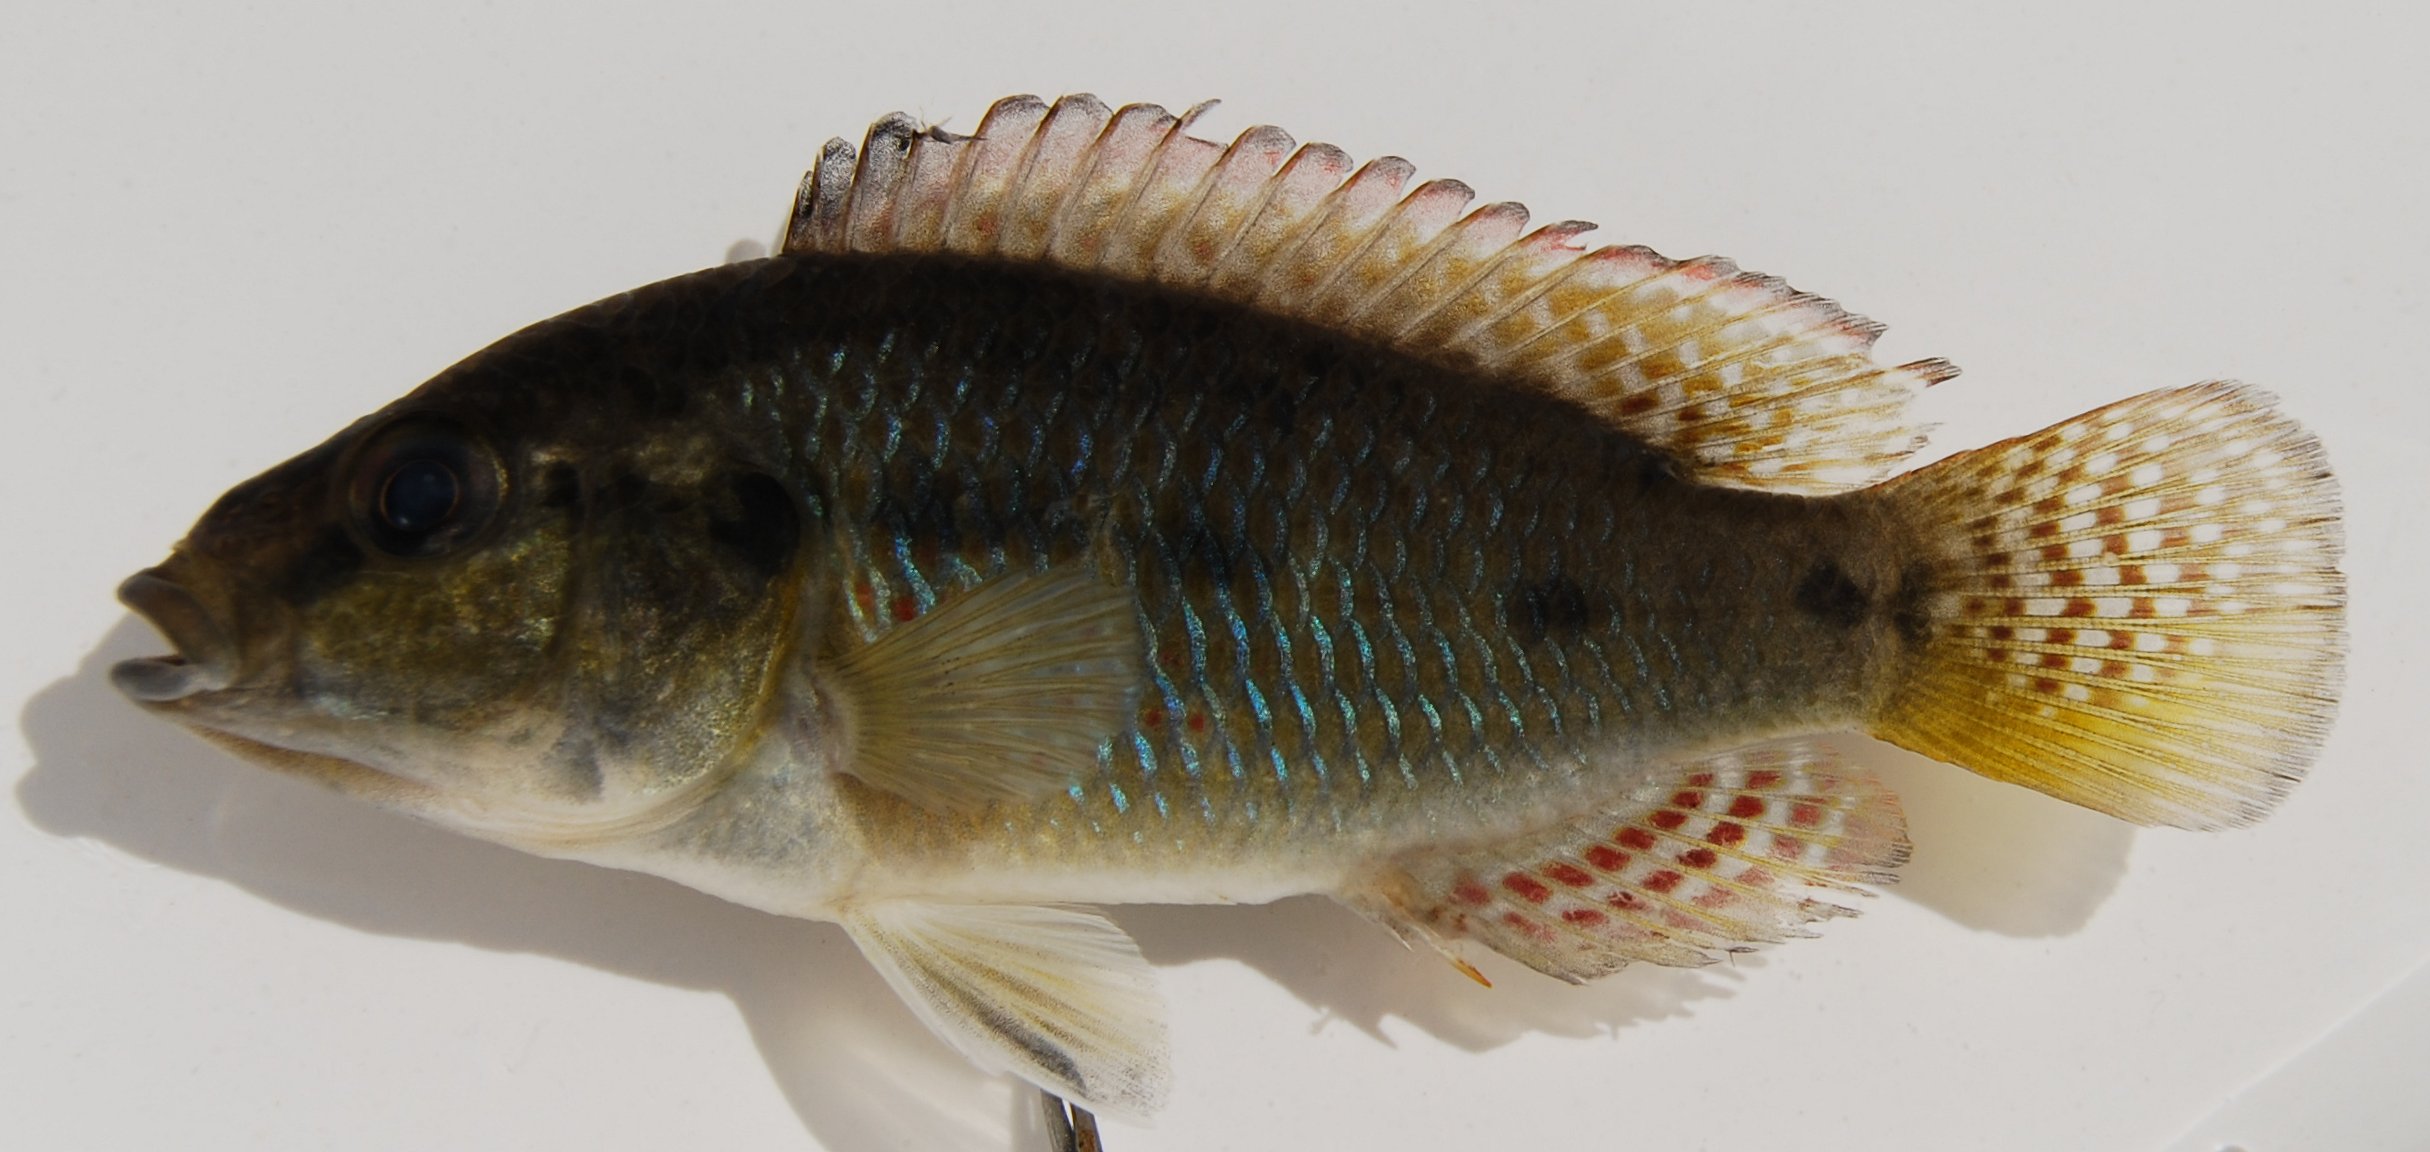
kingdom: Animalia
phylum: Chordata
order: Perciformes
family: Cichlidae
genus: Pseudocrenilabrus
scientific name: Pseudocrenilabrus philander
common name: Southern mouthbrooder
